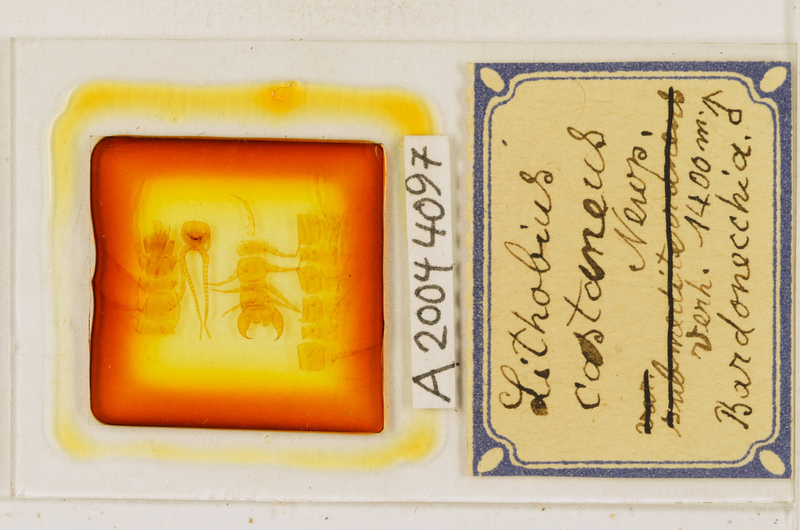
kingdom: Animalia
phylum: Arthropoda
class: Chilopoda
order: Lithobiomorpha
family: Lithobiidae
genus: Lithobius
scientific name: Lithobius castaneus
